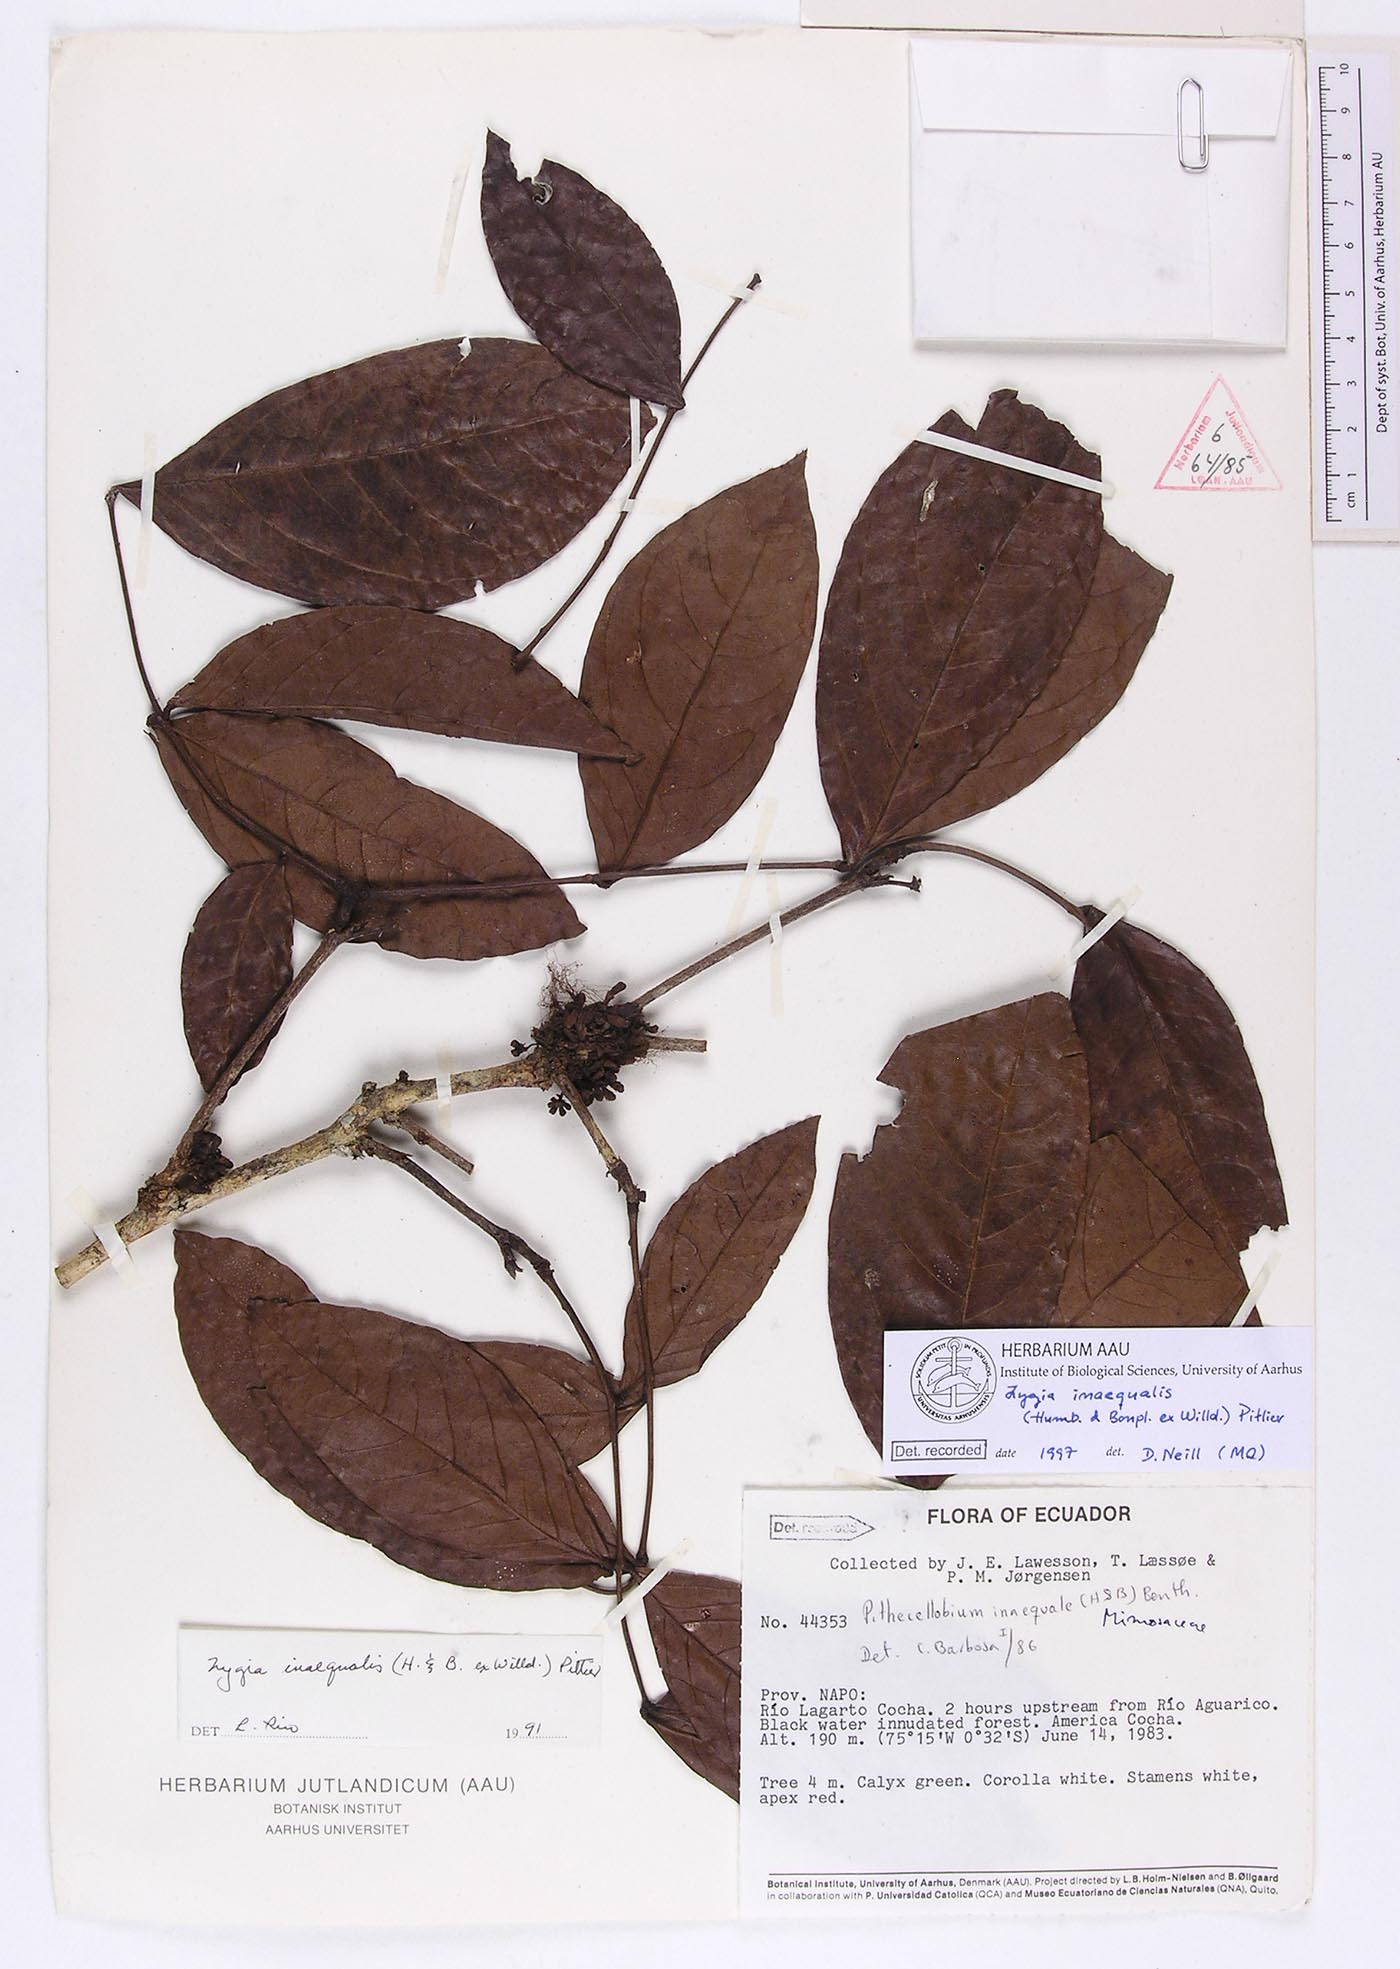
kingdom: Plantae
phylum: Tracheophyta
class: Magnoliopsida
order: Fabales
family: Fabaceae
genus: Zygia
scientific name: Zygia inaequalis
